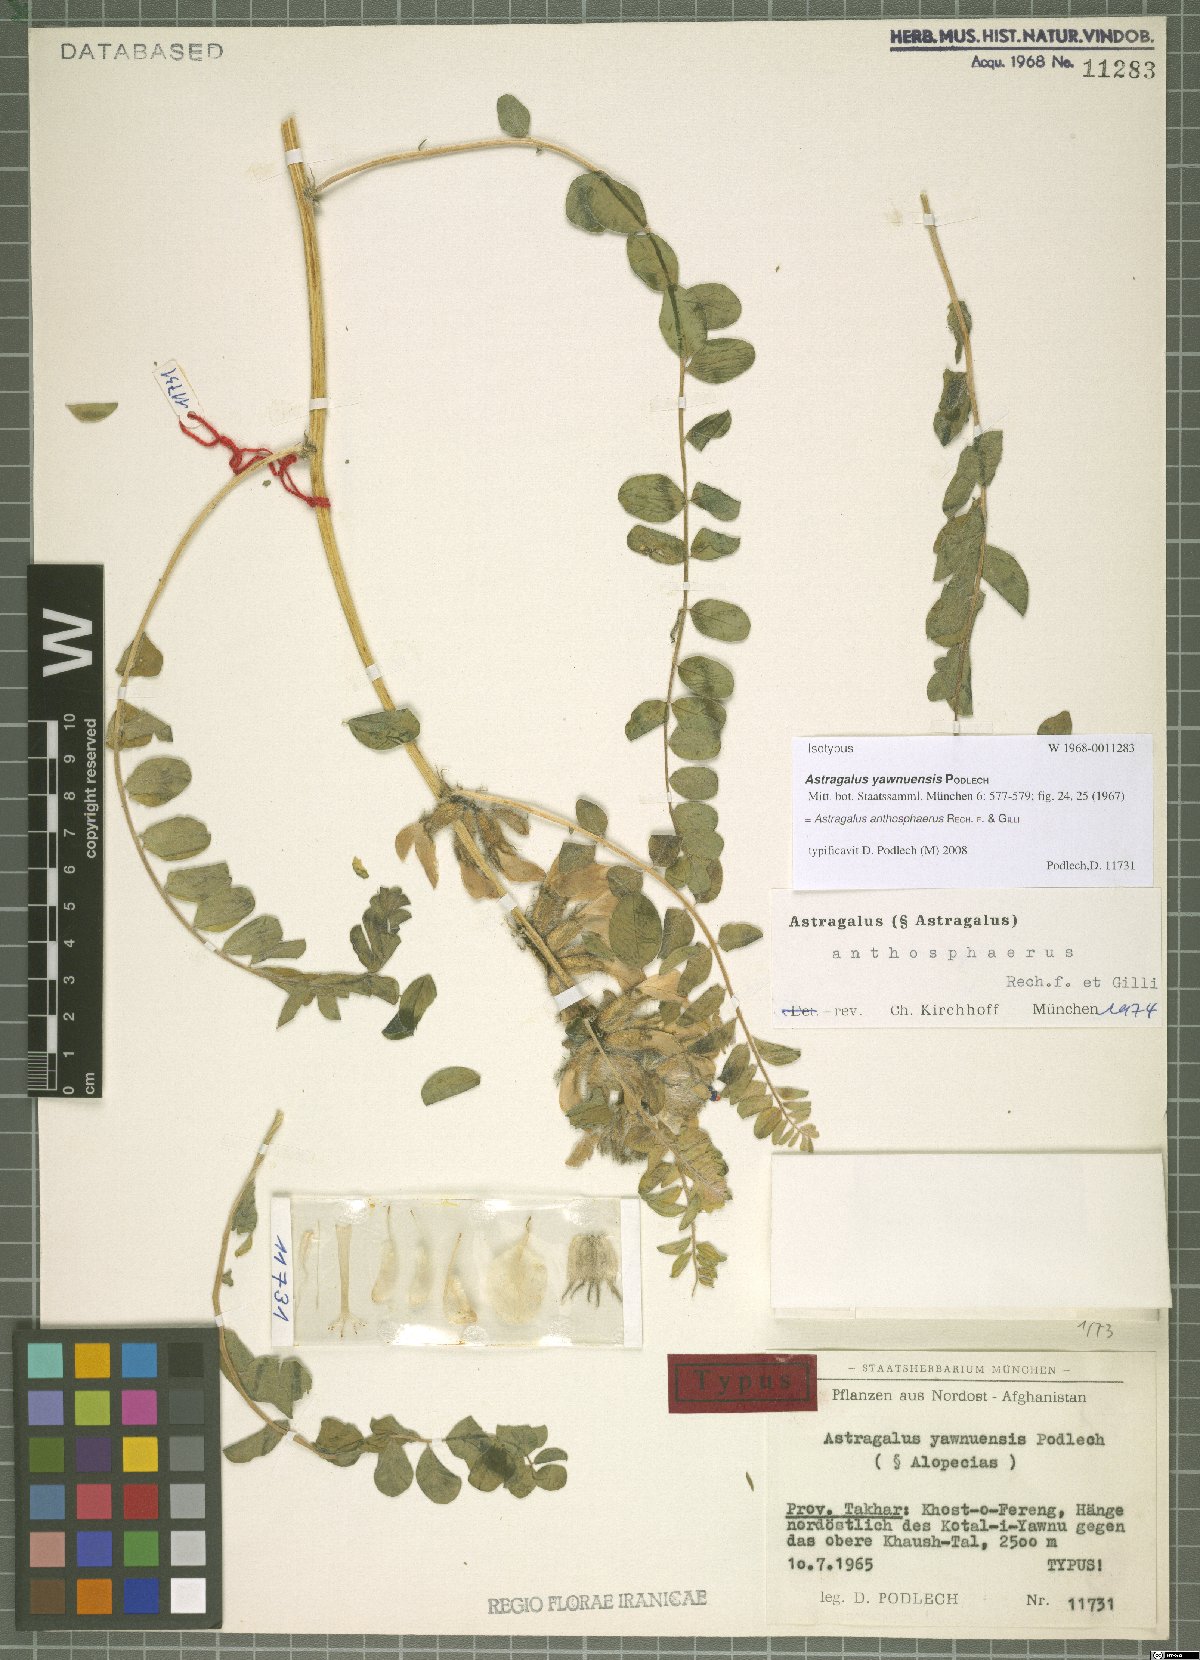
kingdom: Plantae
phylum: Tracheophyta
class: Magnoliopsida
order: Fabales
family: Fabaceae
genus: Astragalus
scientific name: Astragalus anthosphaerus
